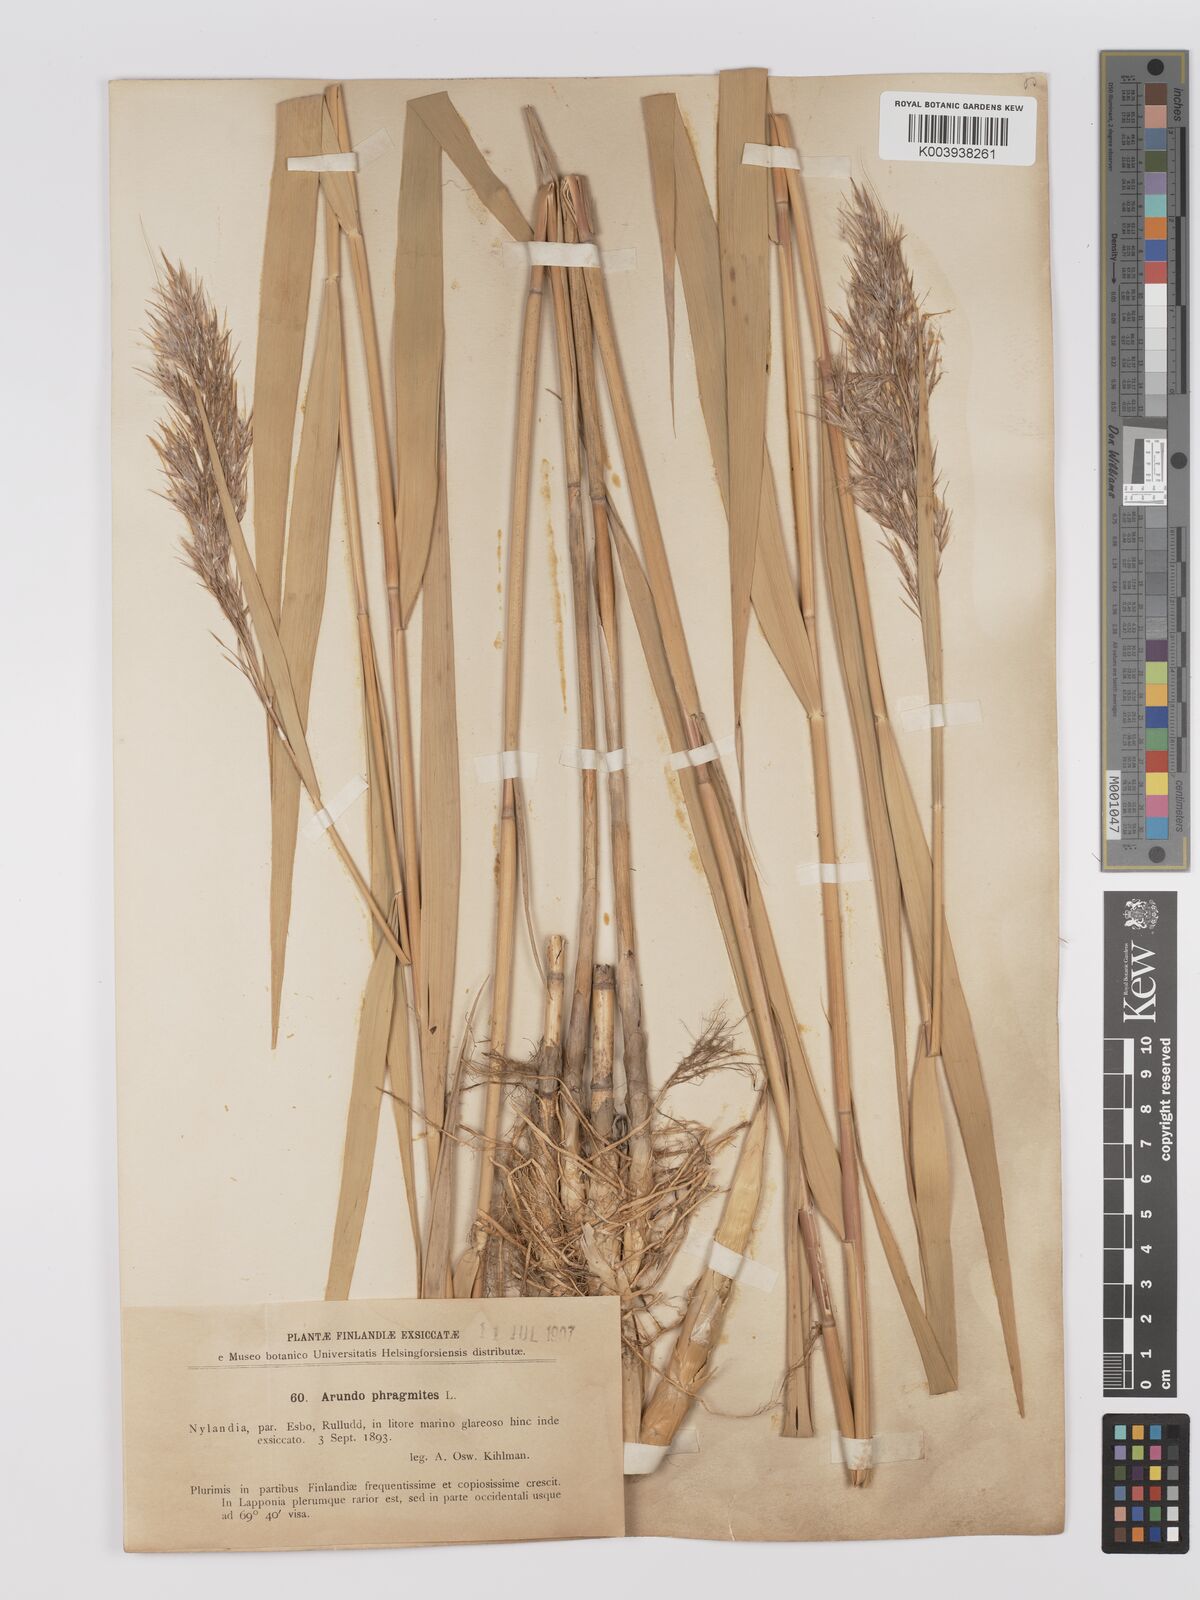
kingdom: Plantae
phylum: Tracheophyta
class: Liliopsida
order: Poales
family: Poaceae
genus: Phragmites
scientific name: Phragmites australis
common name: Common reed
